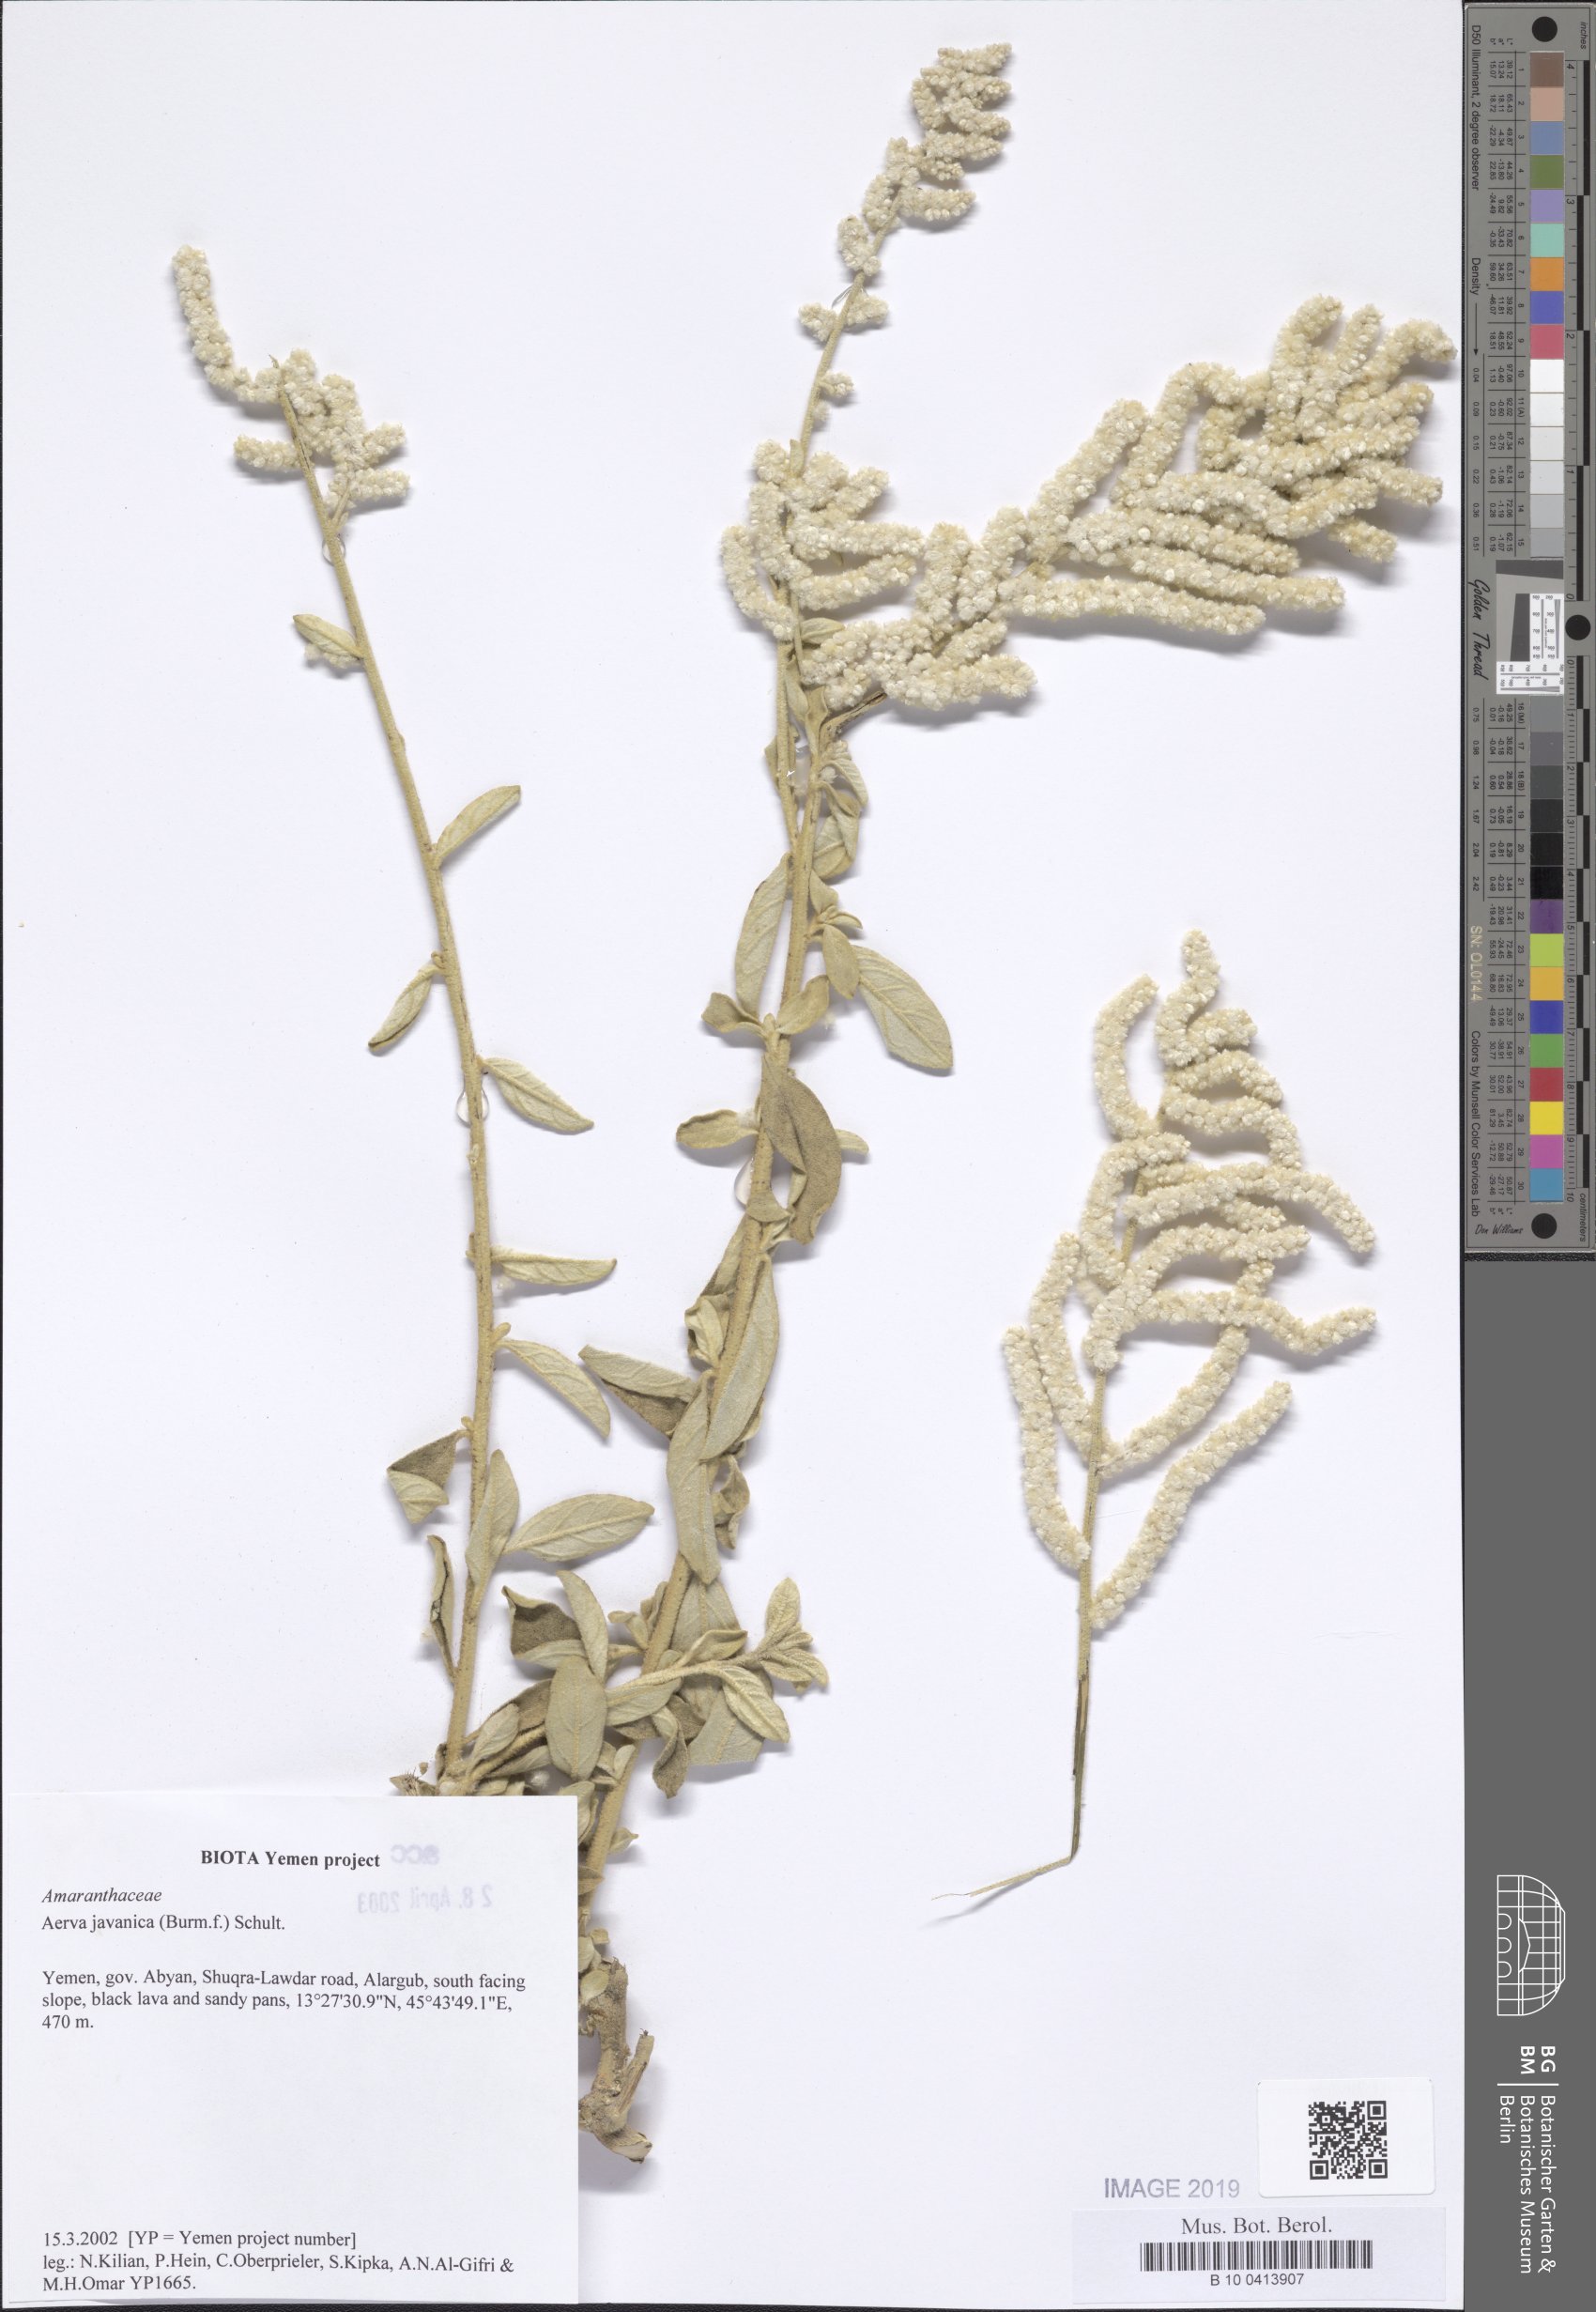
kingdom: Plantae
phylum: Tracheophyta
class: Magnoliopsida
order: Caryophyllales
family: Amaranthaceae
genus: Aerva
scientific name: Aerva javanica
